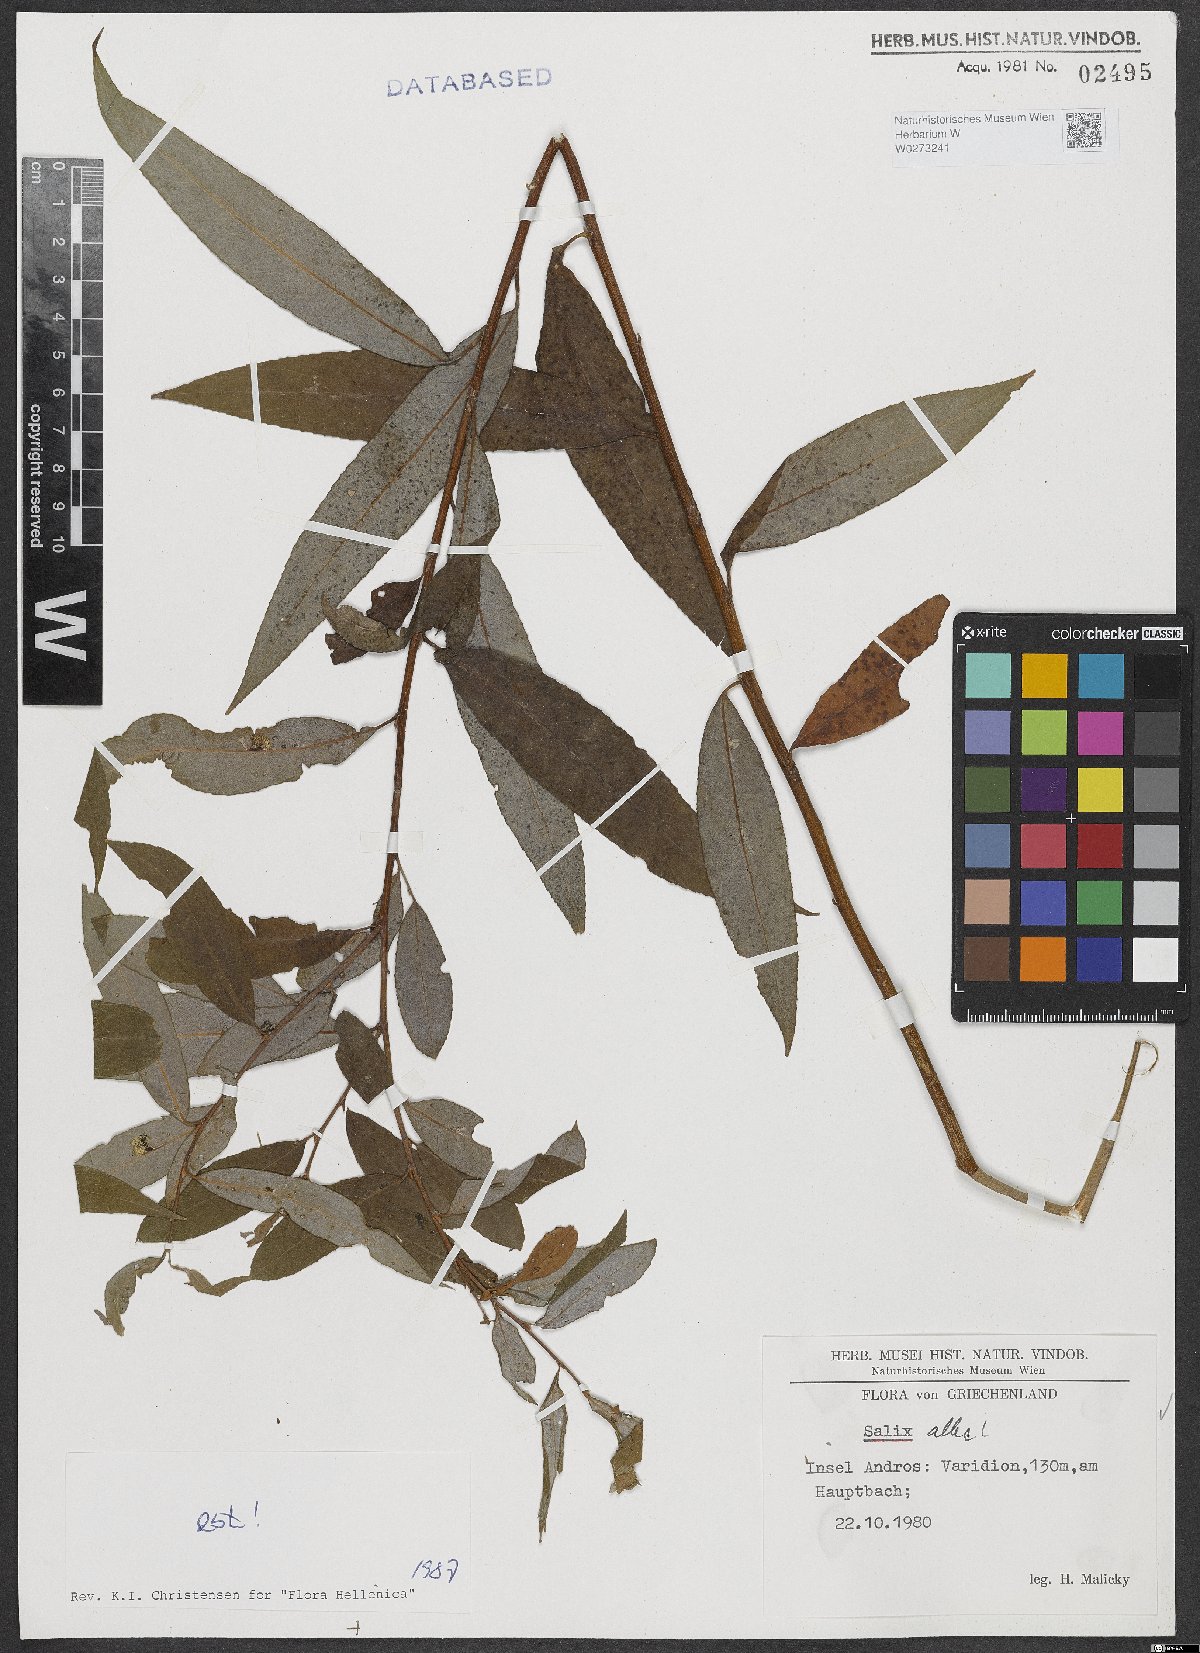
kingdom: Plantae
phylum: Tracheophyta
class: Magnoliopsida
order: Malpighiales
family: Salicaceae
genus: Salix
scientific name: Salix alba
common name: White willow
